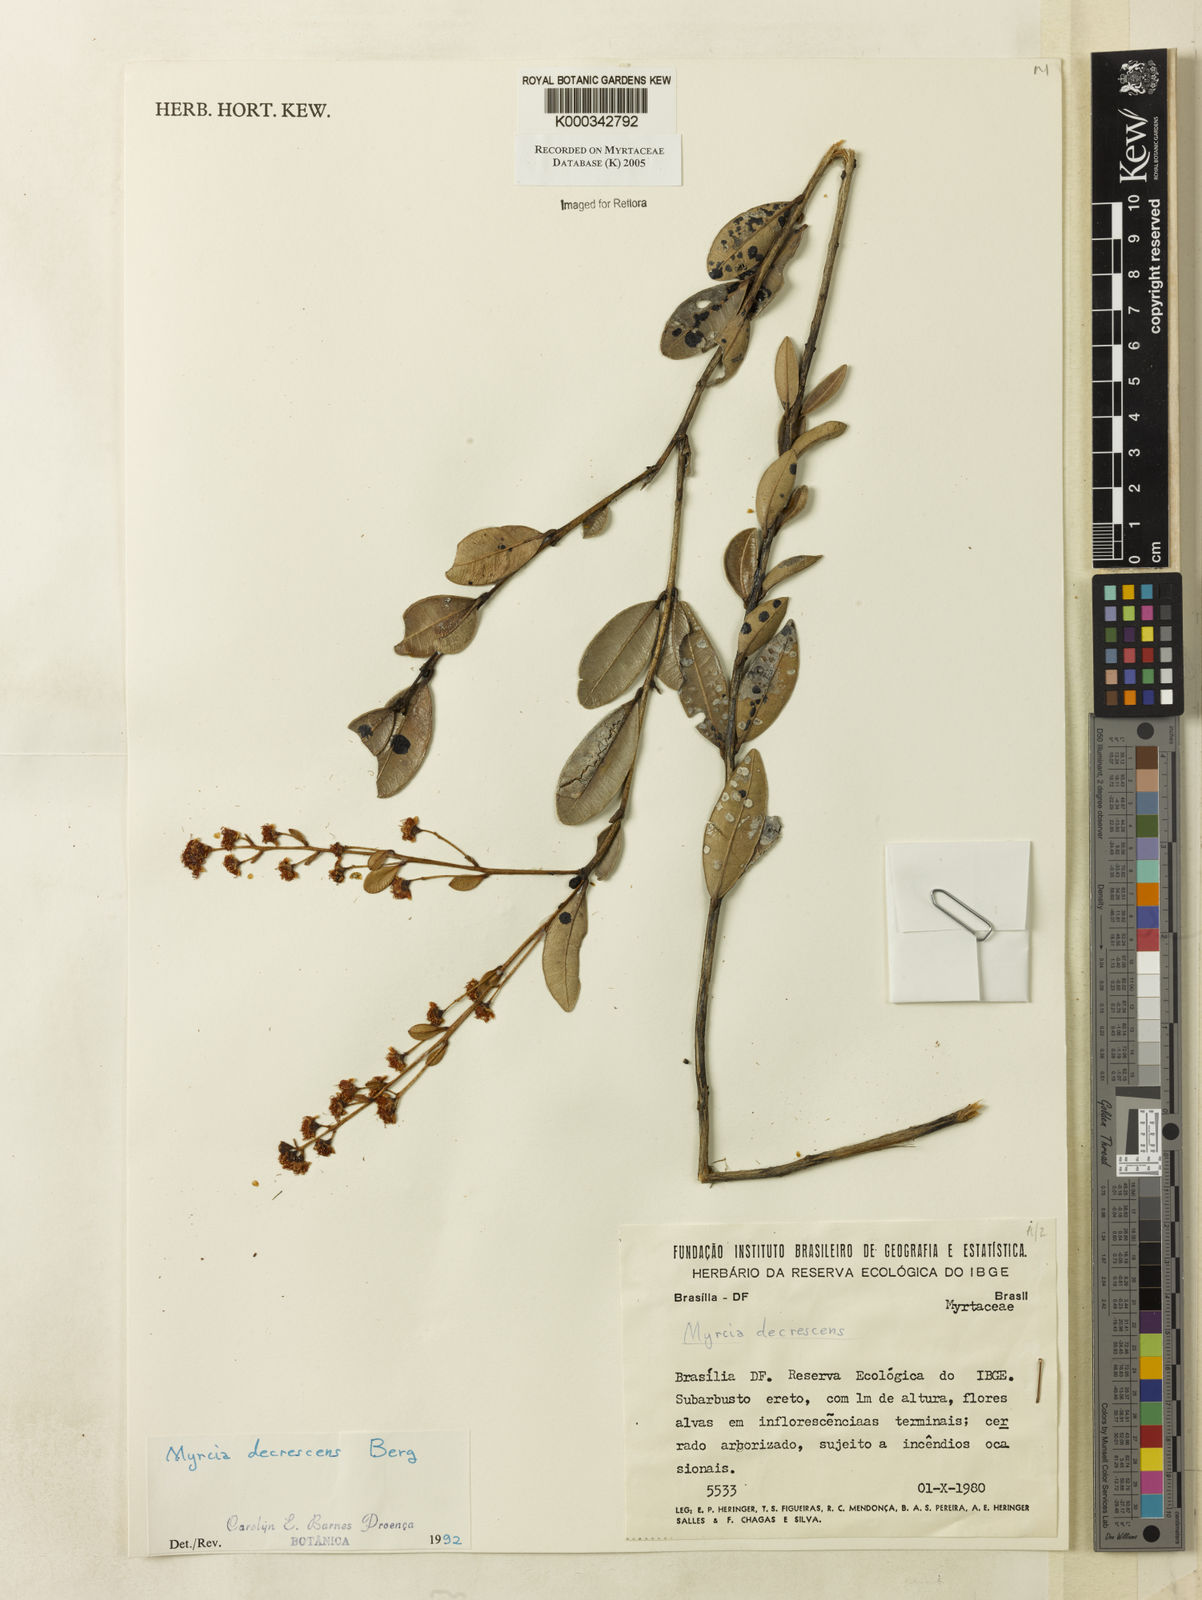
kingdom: Plantae
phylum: Tracheophyta
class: Magnoliopsida
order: Myrtales
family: Myrtaceae
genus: Myrcia
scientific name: Myrcia
